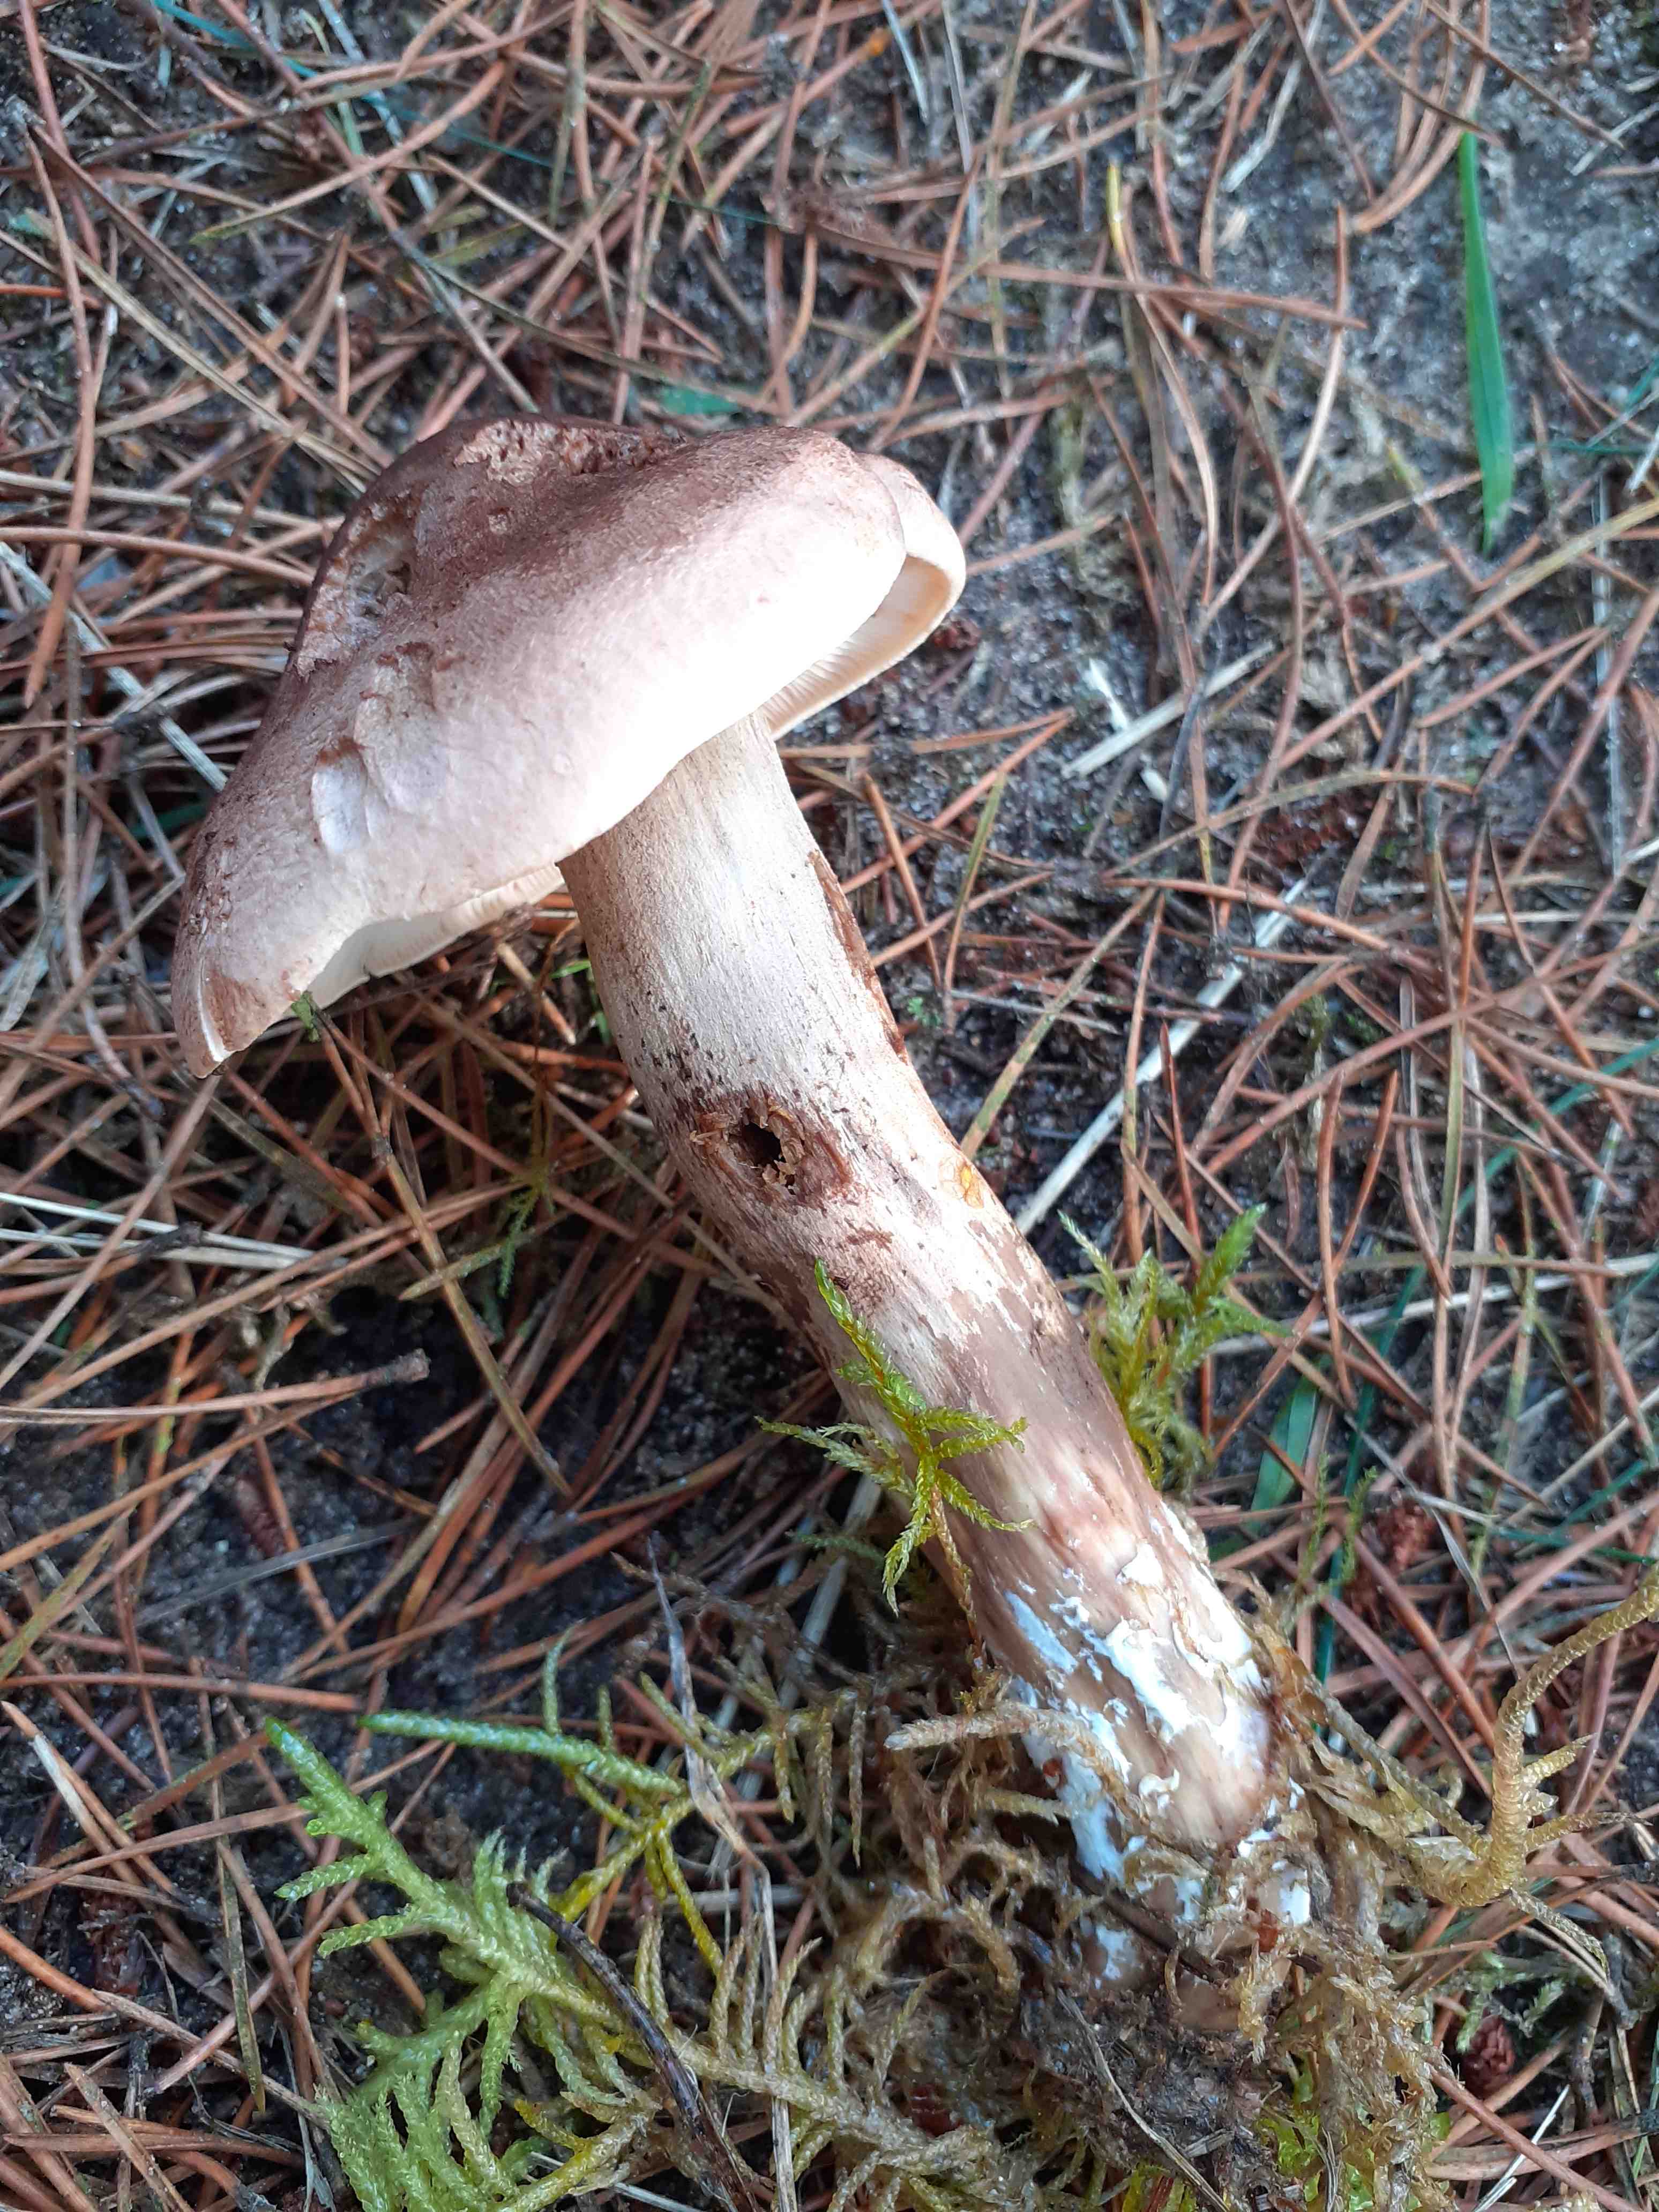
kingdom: Fungi
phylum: Basidiomycota
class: Agaricomycetes
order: Agaricales
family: Tricholomataceae
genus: Tricholoma
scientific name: Tricholoma imbricatum
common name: skællet ridderhat
